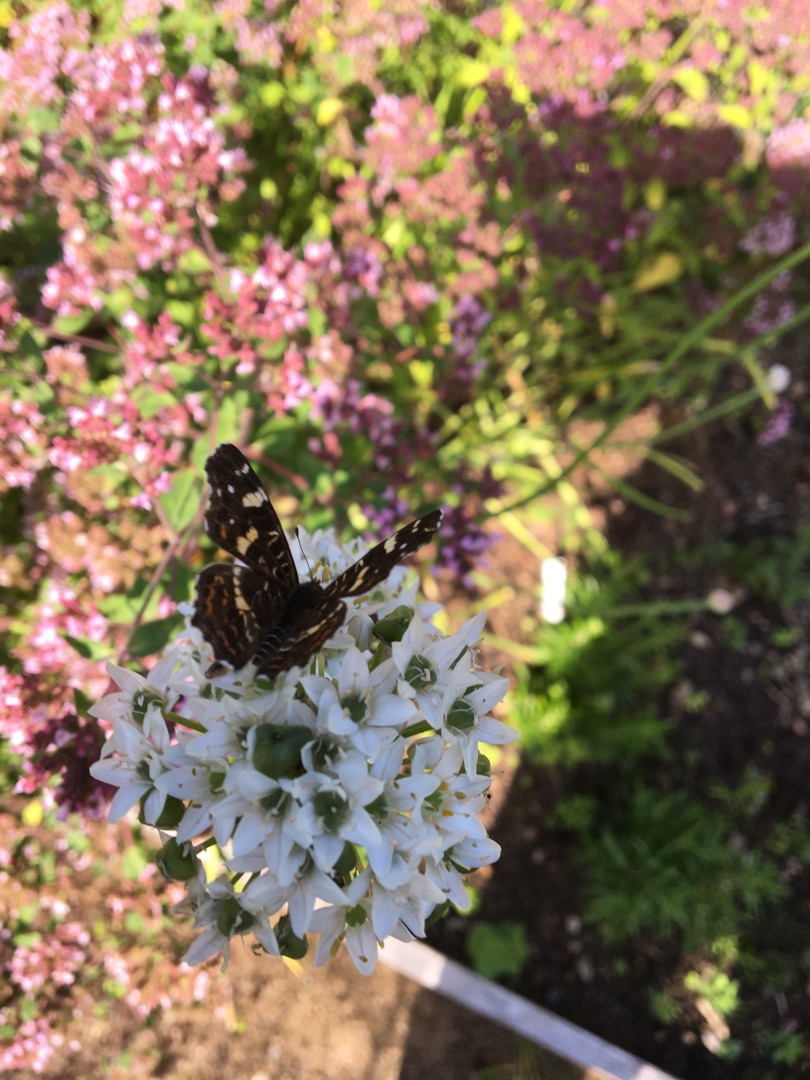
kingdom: Animalia
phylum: Arthropoda
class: Insecta
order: Lepidoptera
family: Nymphalidae
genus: Araschnia
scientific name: Araschnia levana
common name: Nældesommerfugl
